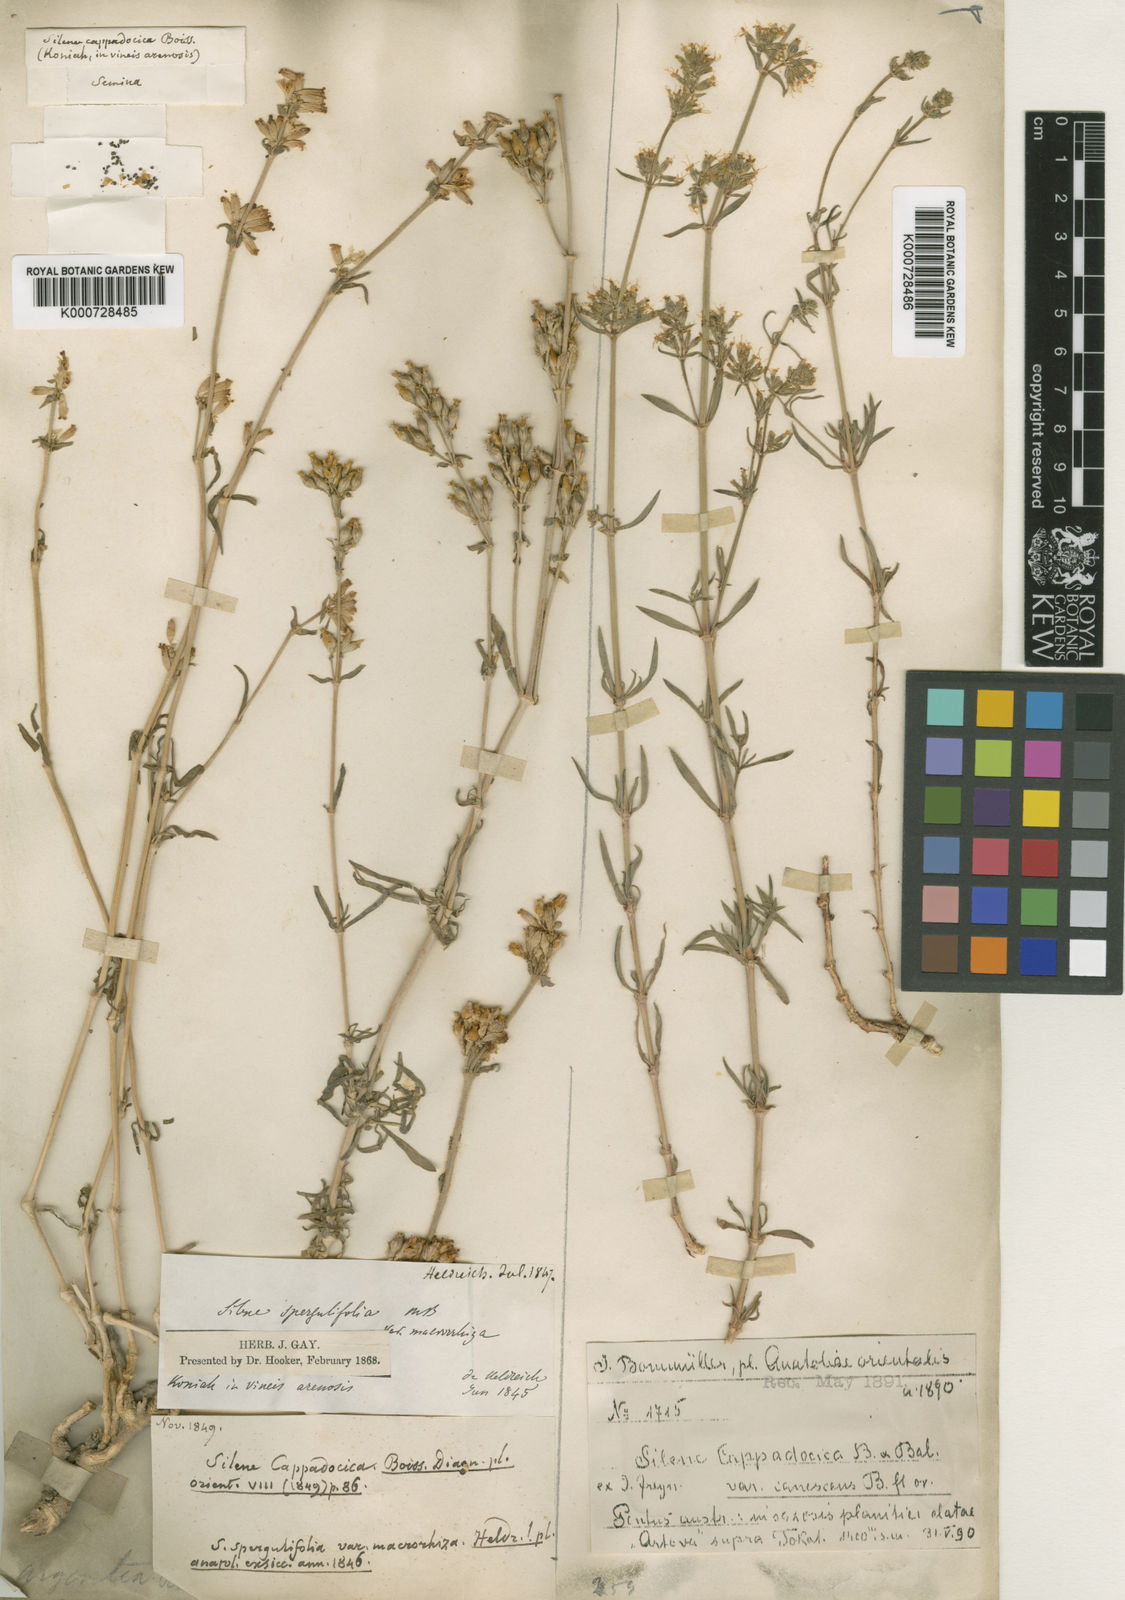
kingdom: Plantae
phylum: Tracheophyta
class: Magnoliopsida
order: Caryophyllales
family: Caryophyllaceae
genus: Silene
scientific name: Silene cappadocica
